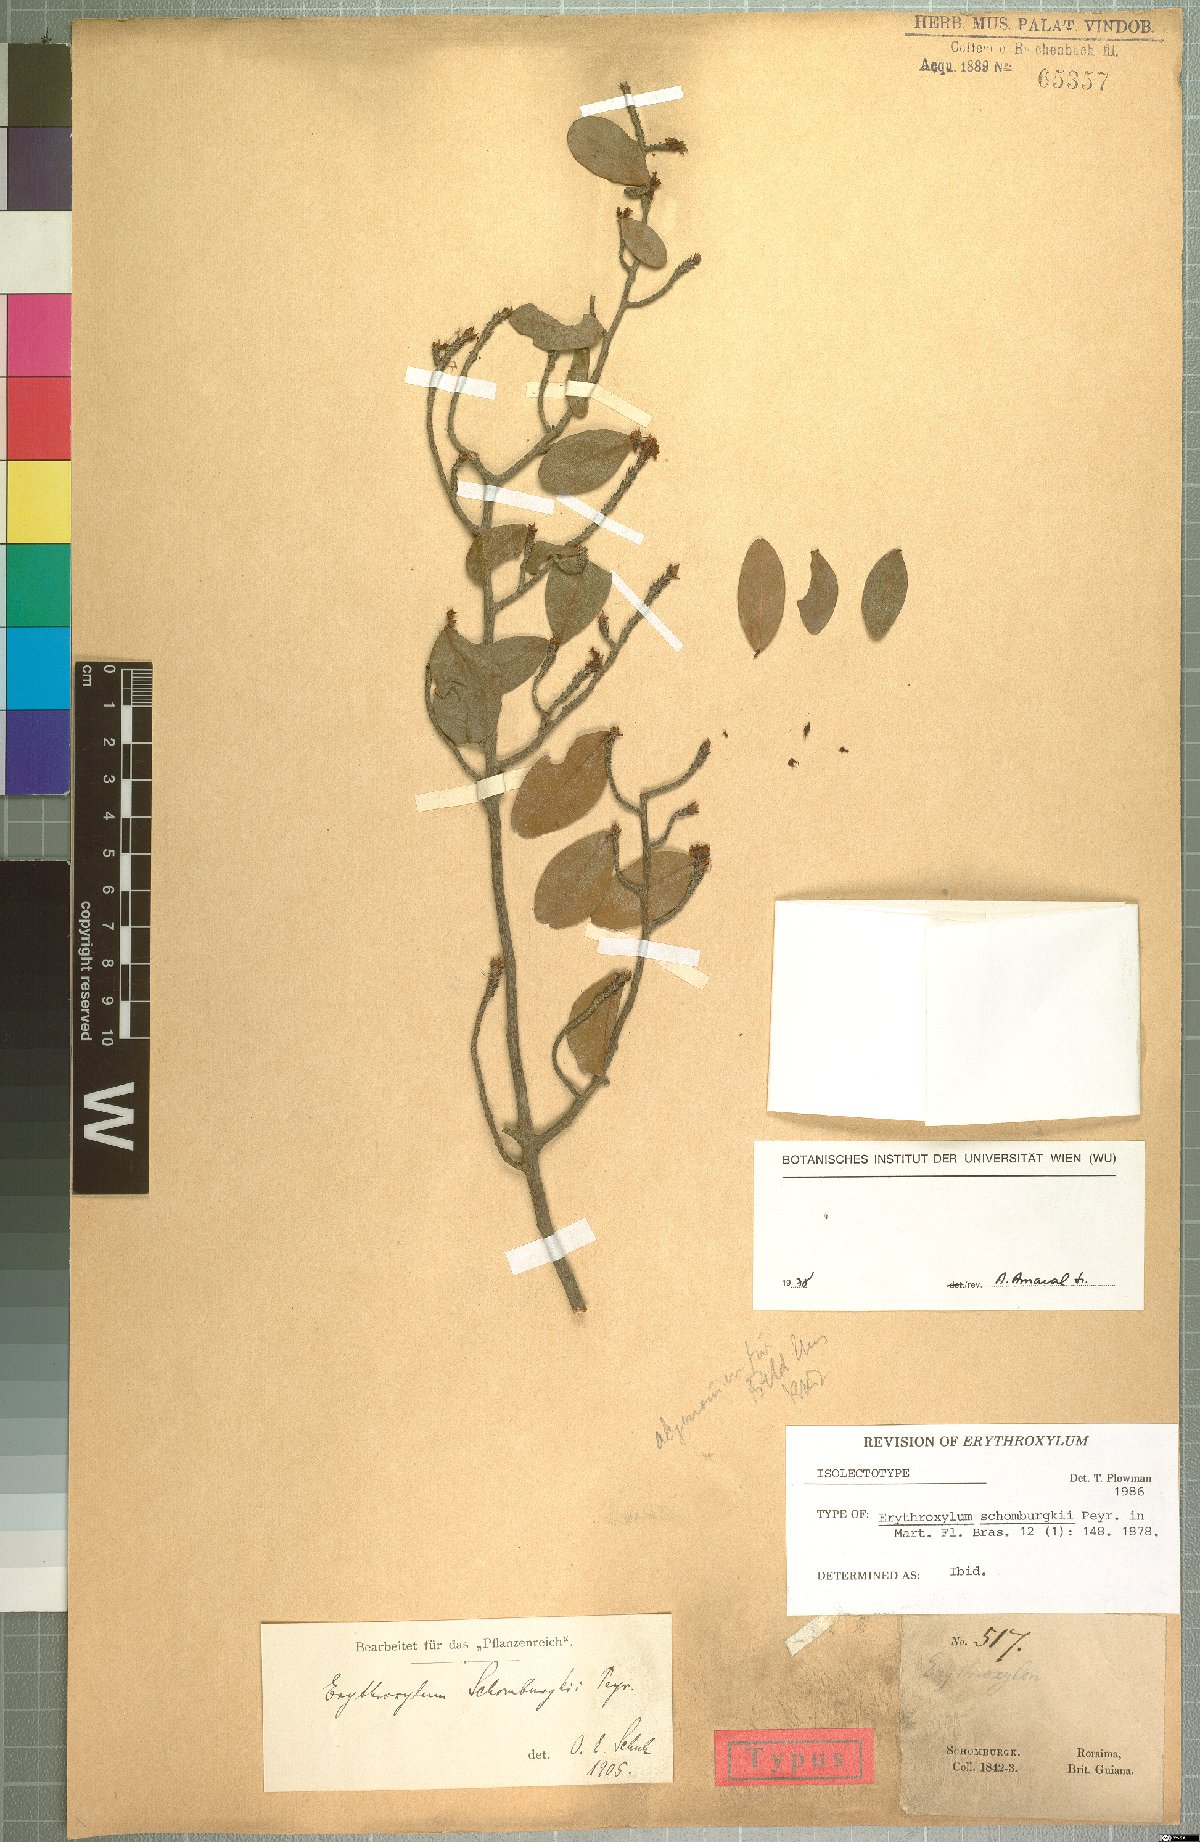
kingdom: Plantae
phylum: Tracheophyta
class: Magnoliopsida
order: Malpighiales
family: Erythroxylaceae
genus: Erythroxylum
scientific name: Erythroxylum schomburgkii
